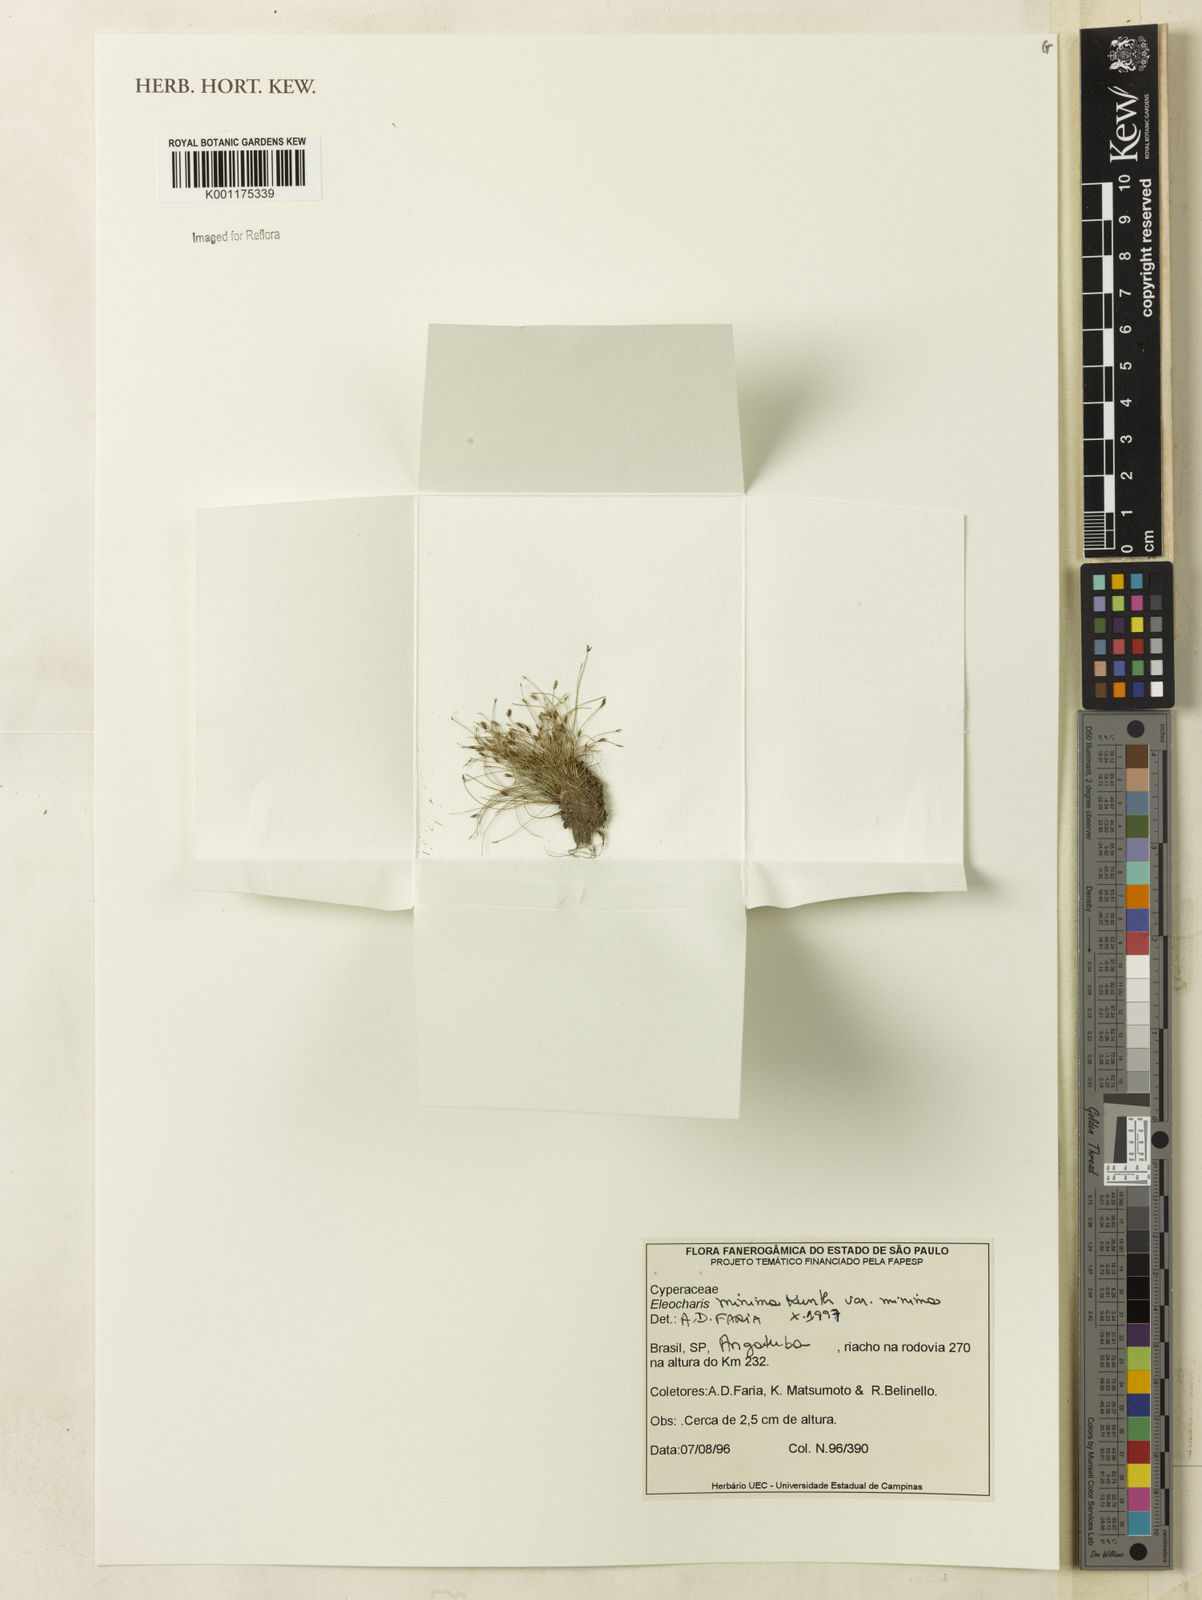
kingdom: Plantae
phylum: Tracheophyta
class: Liliopsida
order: Poales
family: Cyperaceae
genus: Eleocharis
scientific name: Eleocharis minima
